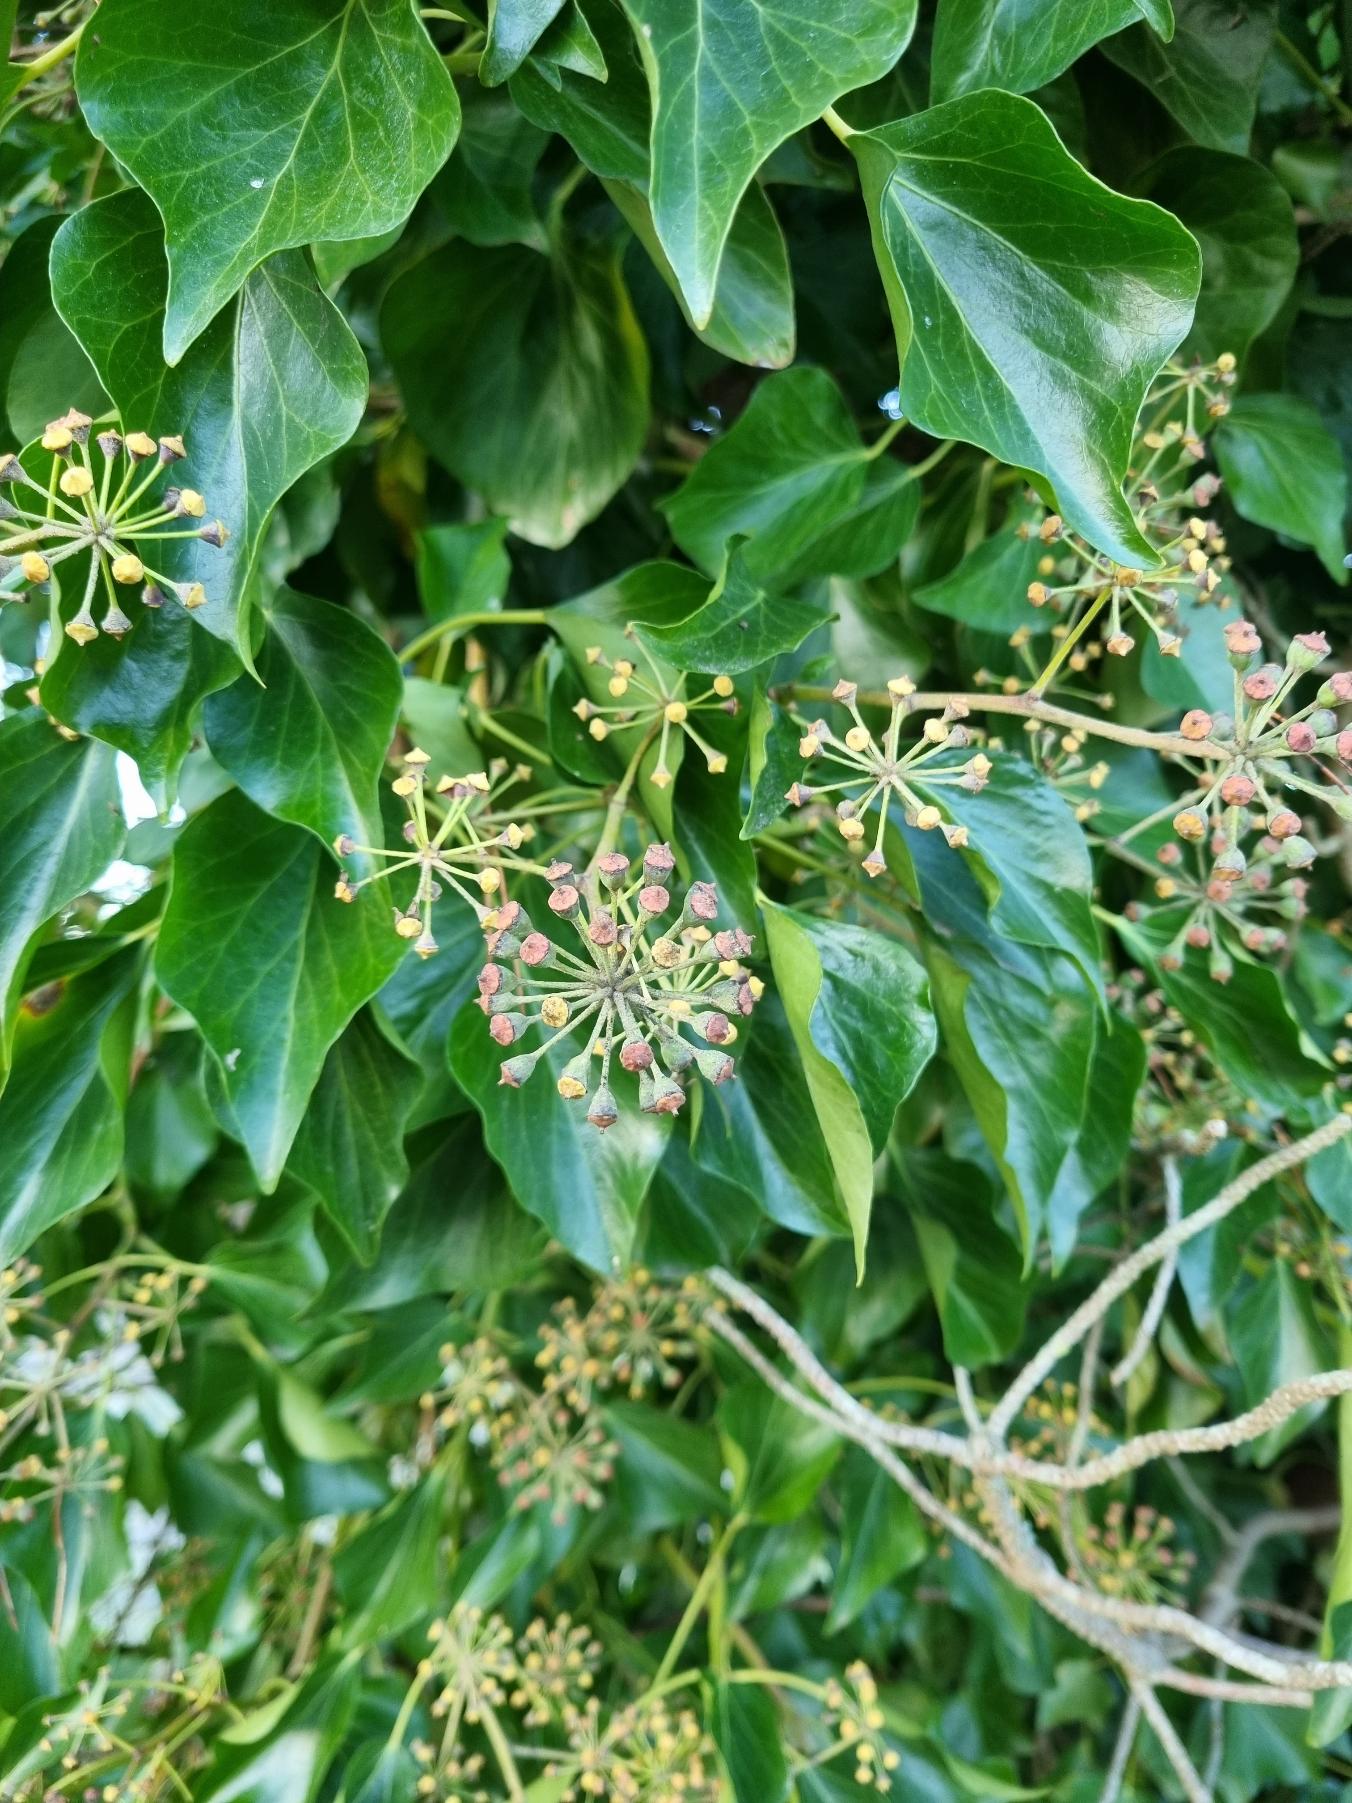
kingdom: Plantae
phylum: Tracheophyta
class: Magnoliopsida
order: Apiales
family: Araliaceae
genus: Hedera
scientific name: Hedera helix
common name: Vedbend
